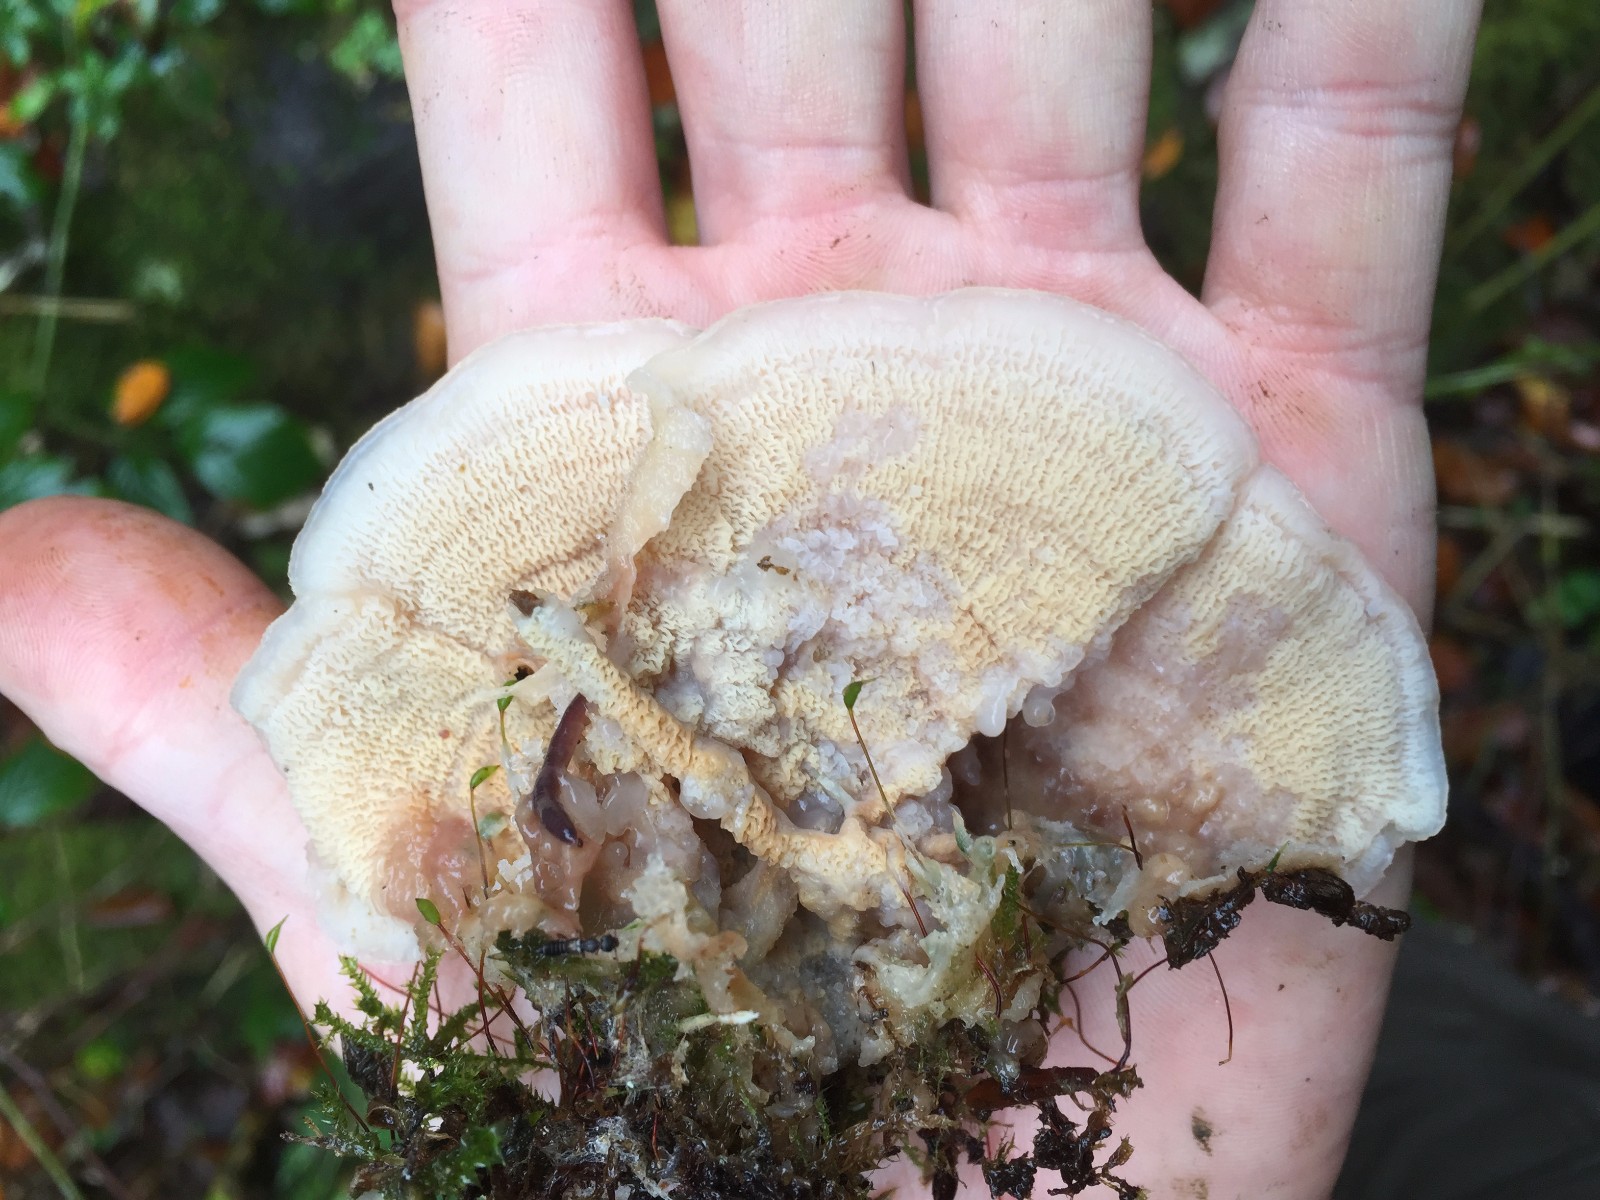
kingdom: Fungi
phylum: Basidiomycota
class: Agaricomycetes
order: Polyporales
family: Meruliaceae
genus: Phlebia
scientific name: Phlebia tremellosa
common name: bævrende åresvamp
